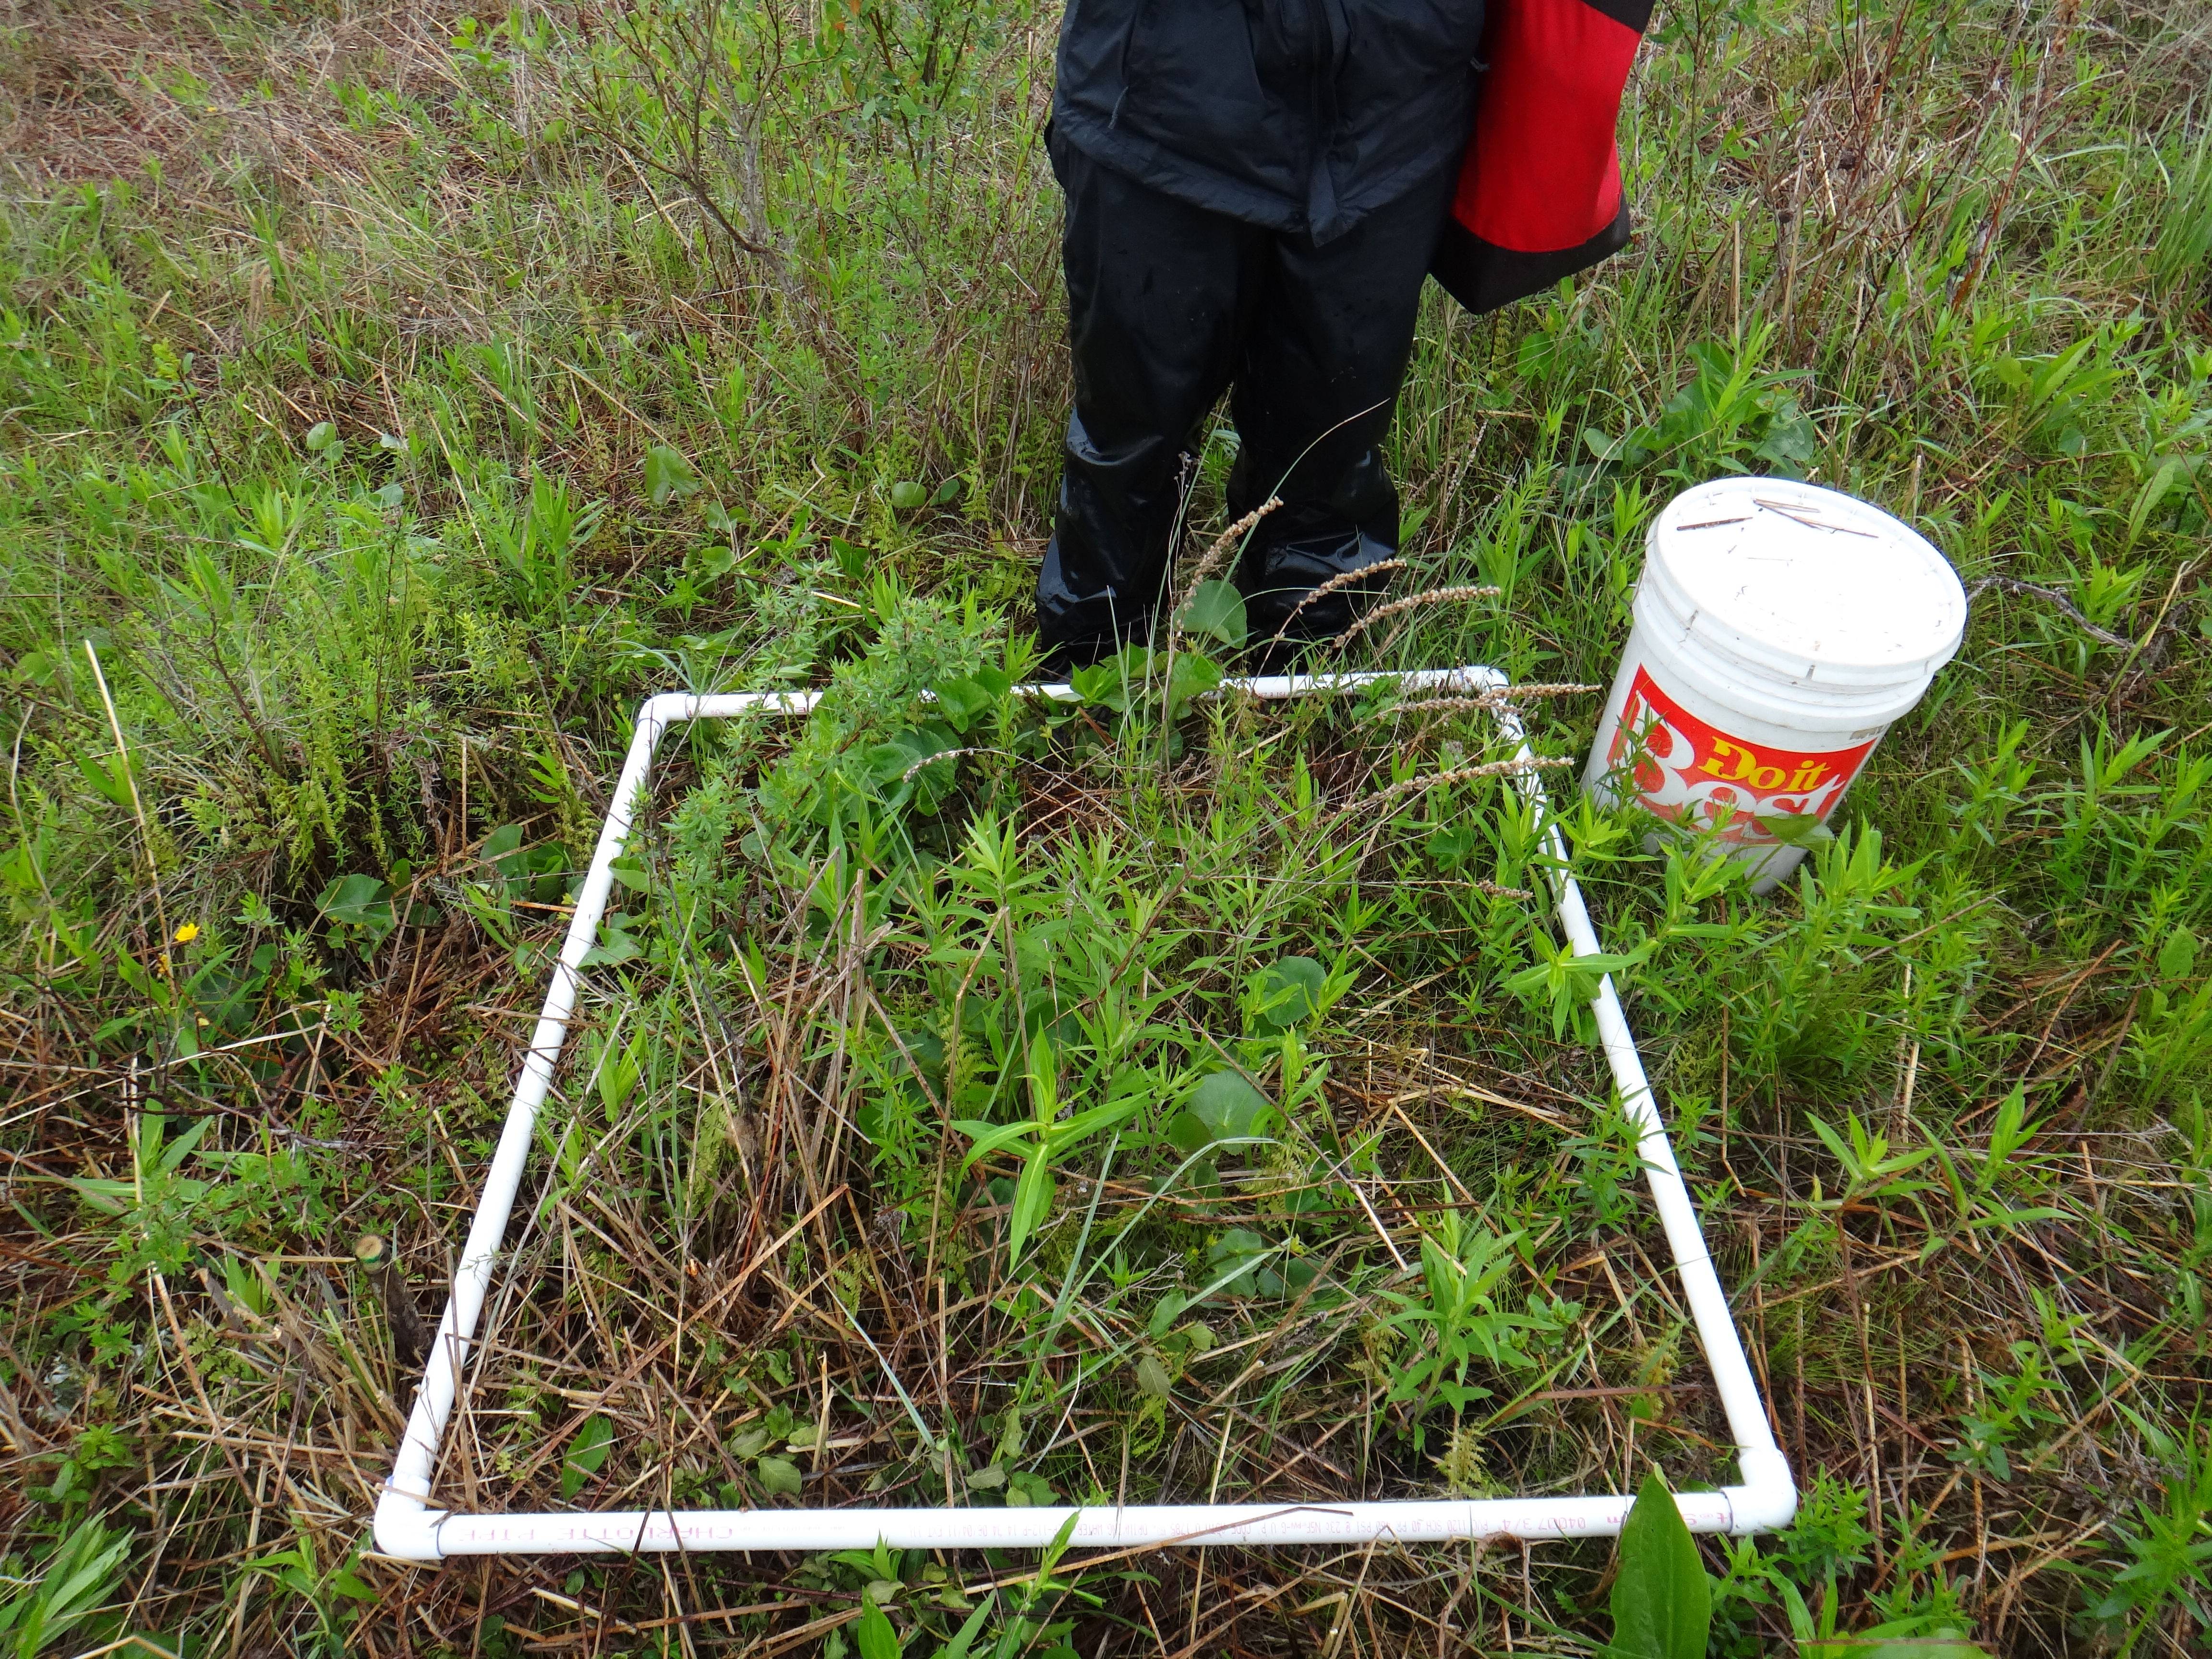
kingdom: Plantae
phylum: Tracheophyta
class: Magnoliopsida
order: Myrtales
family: Lythraceae
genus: Lythrum
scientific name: Lythrum salicaria
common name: Purple loosestrife
